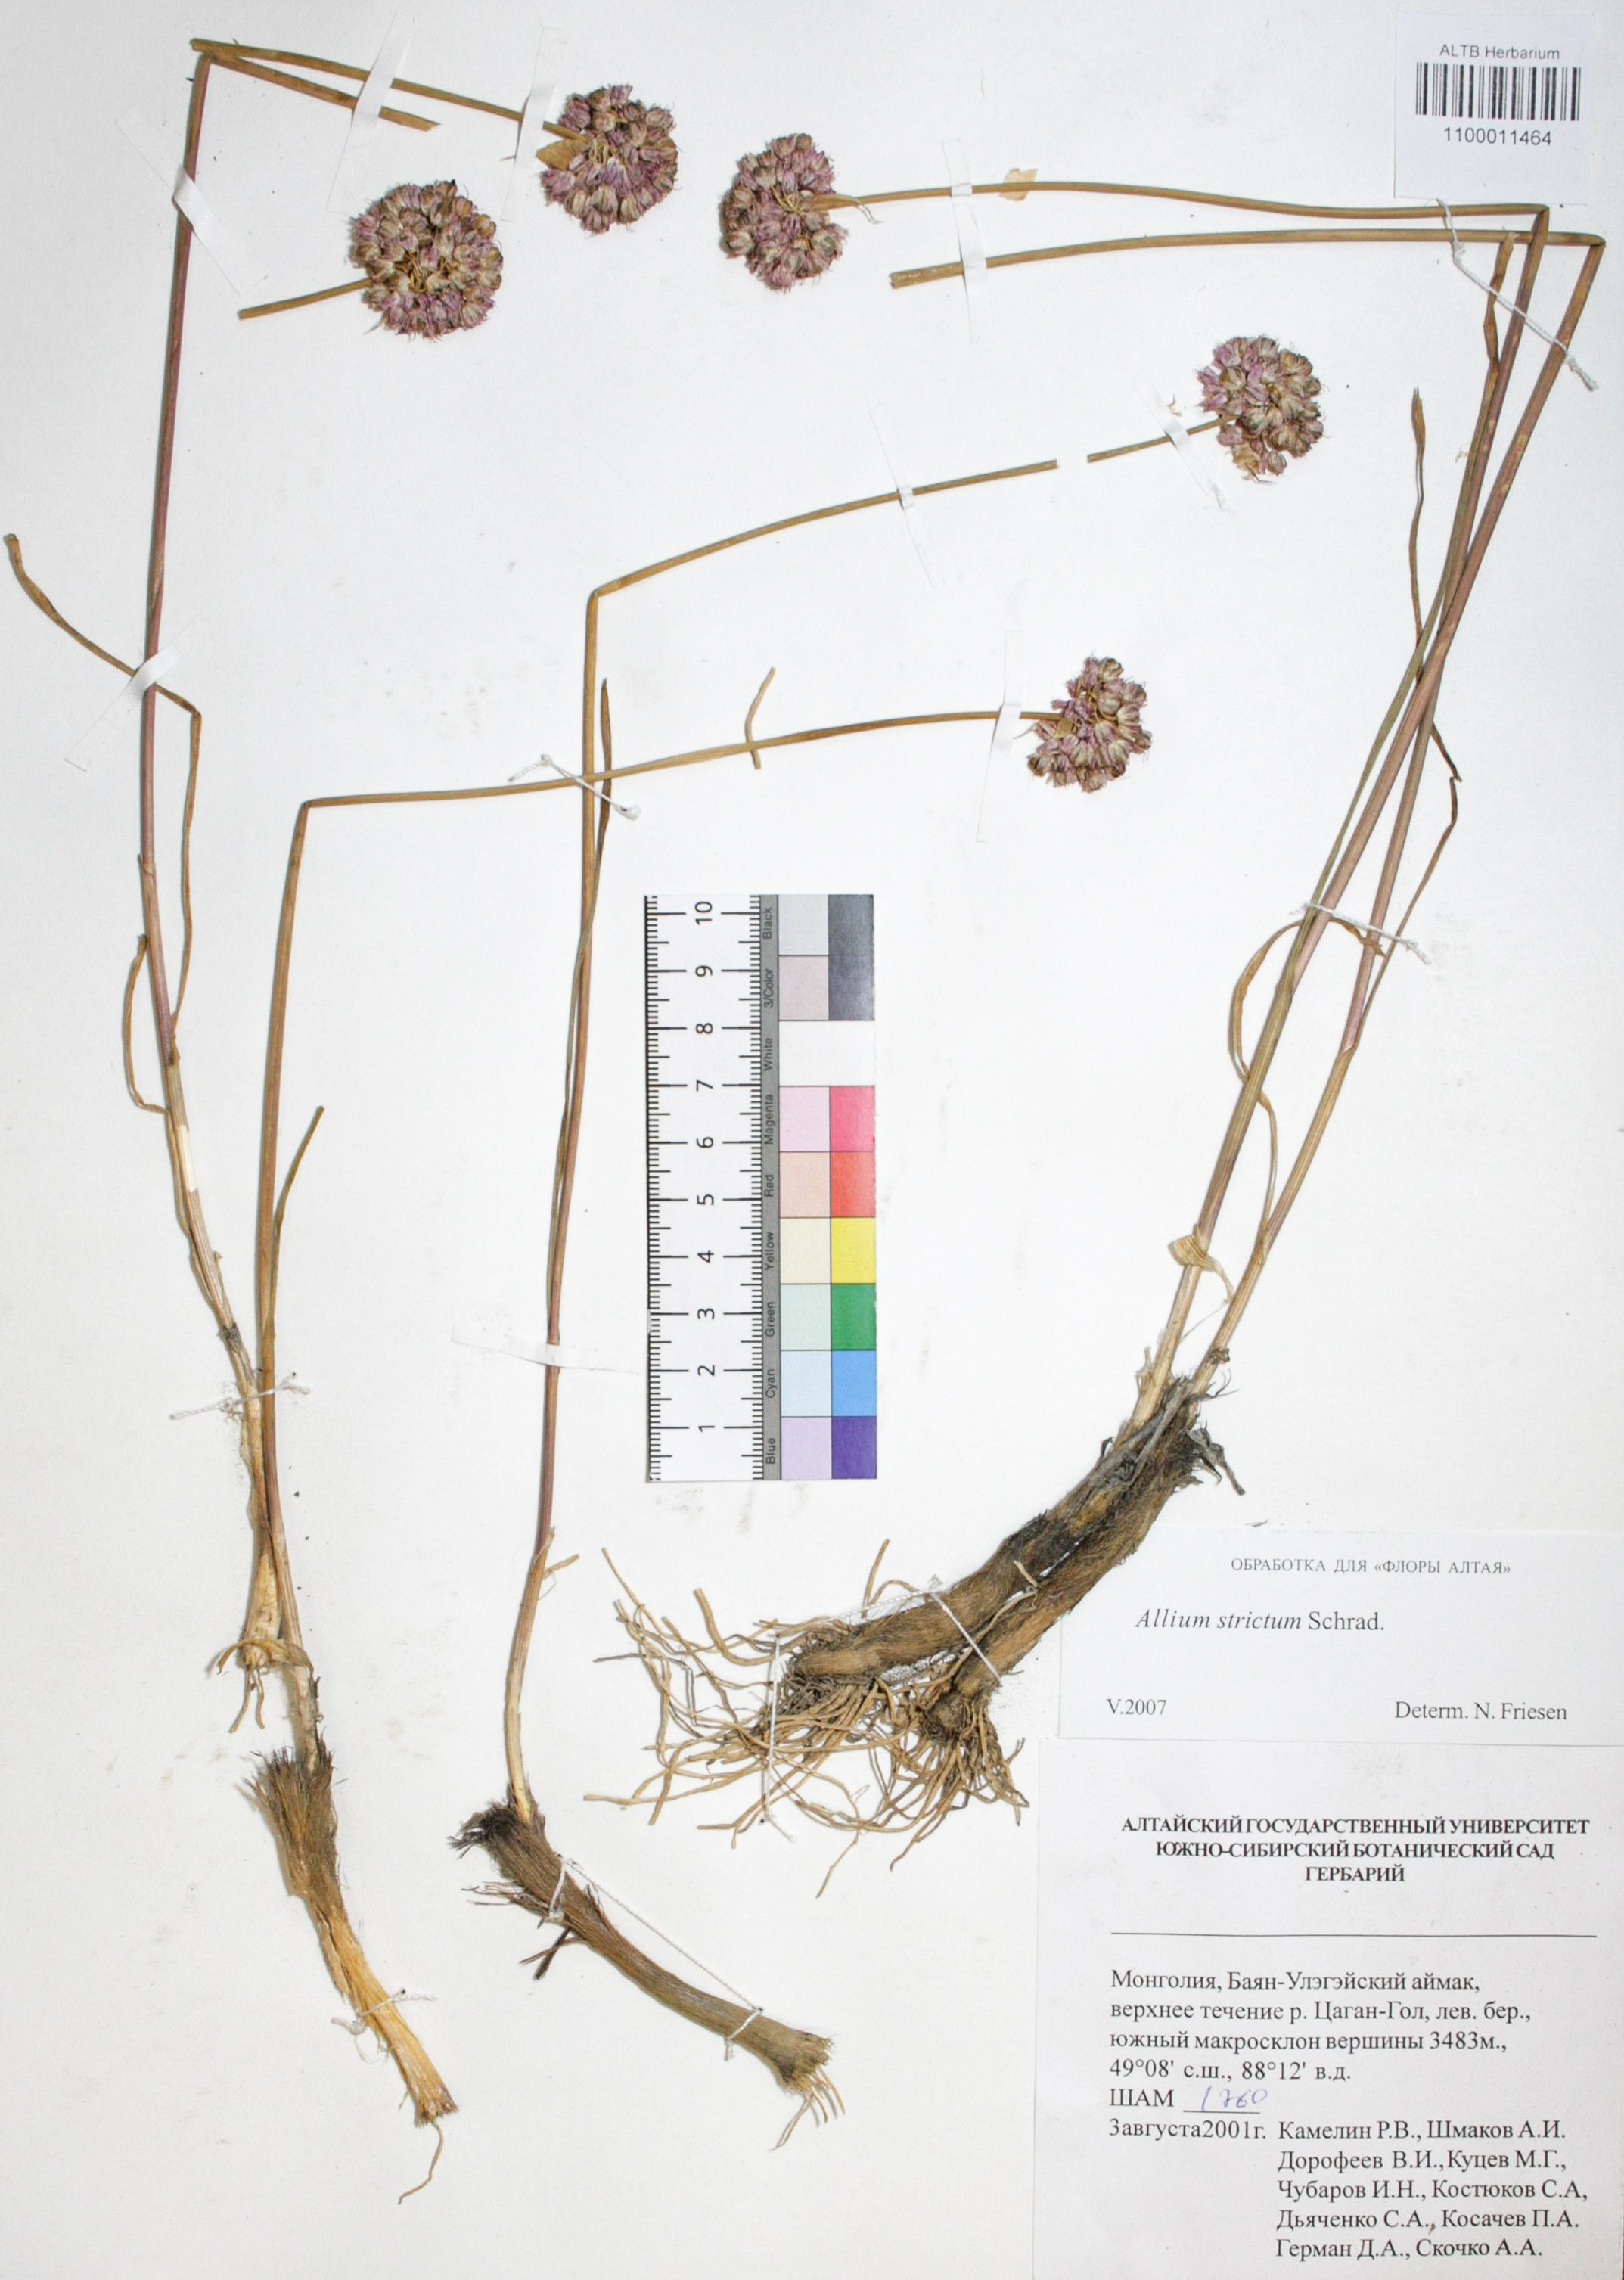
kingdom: Plantae
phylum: Tracheophyta
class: Liliopsida
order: Asparagales
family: Amaryllidaceae
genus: Allium
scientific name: Allium strictum
